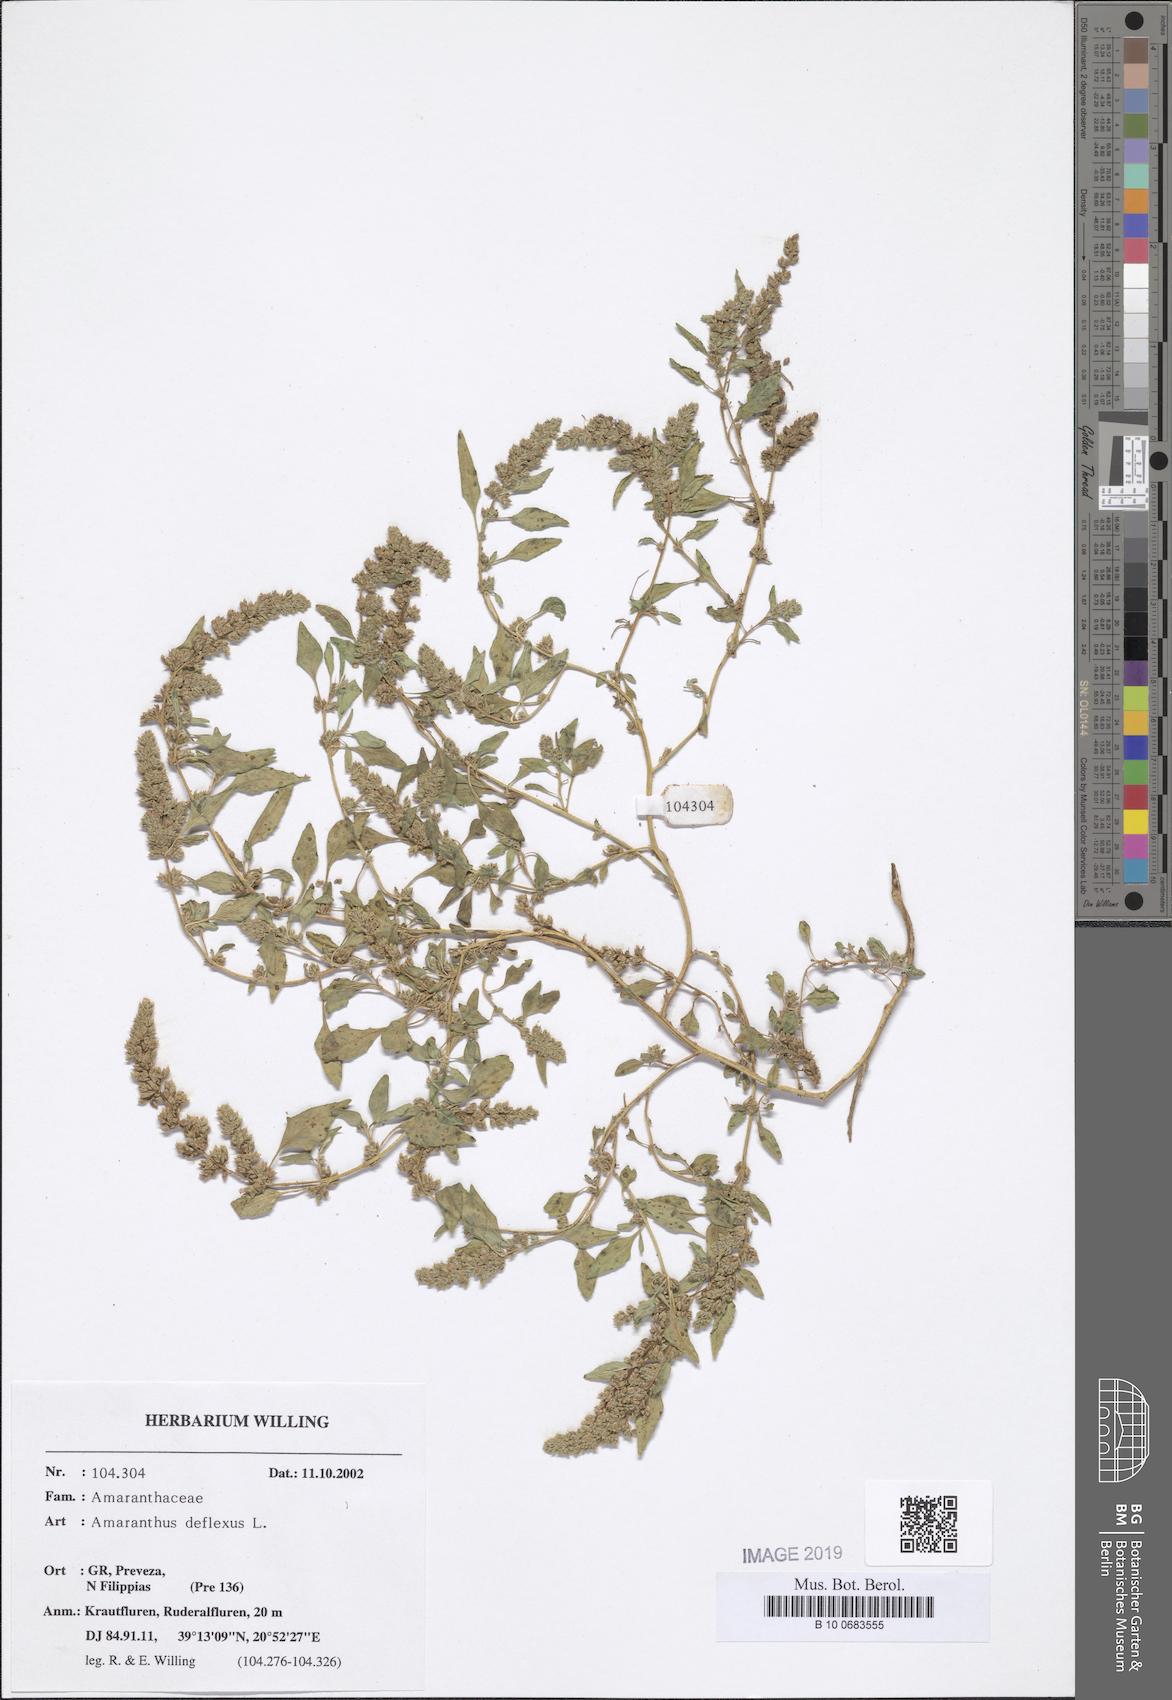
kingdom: Plantae
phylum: Tracheophyta
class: Magnoliopsida
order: Caryophyllales
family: Amaranthaceae
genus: Amaranthus
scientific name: Amaranthus deflexus
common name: Perennial pigweed
